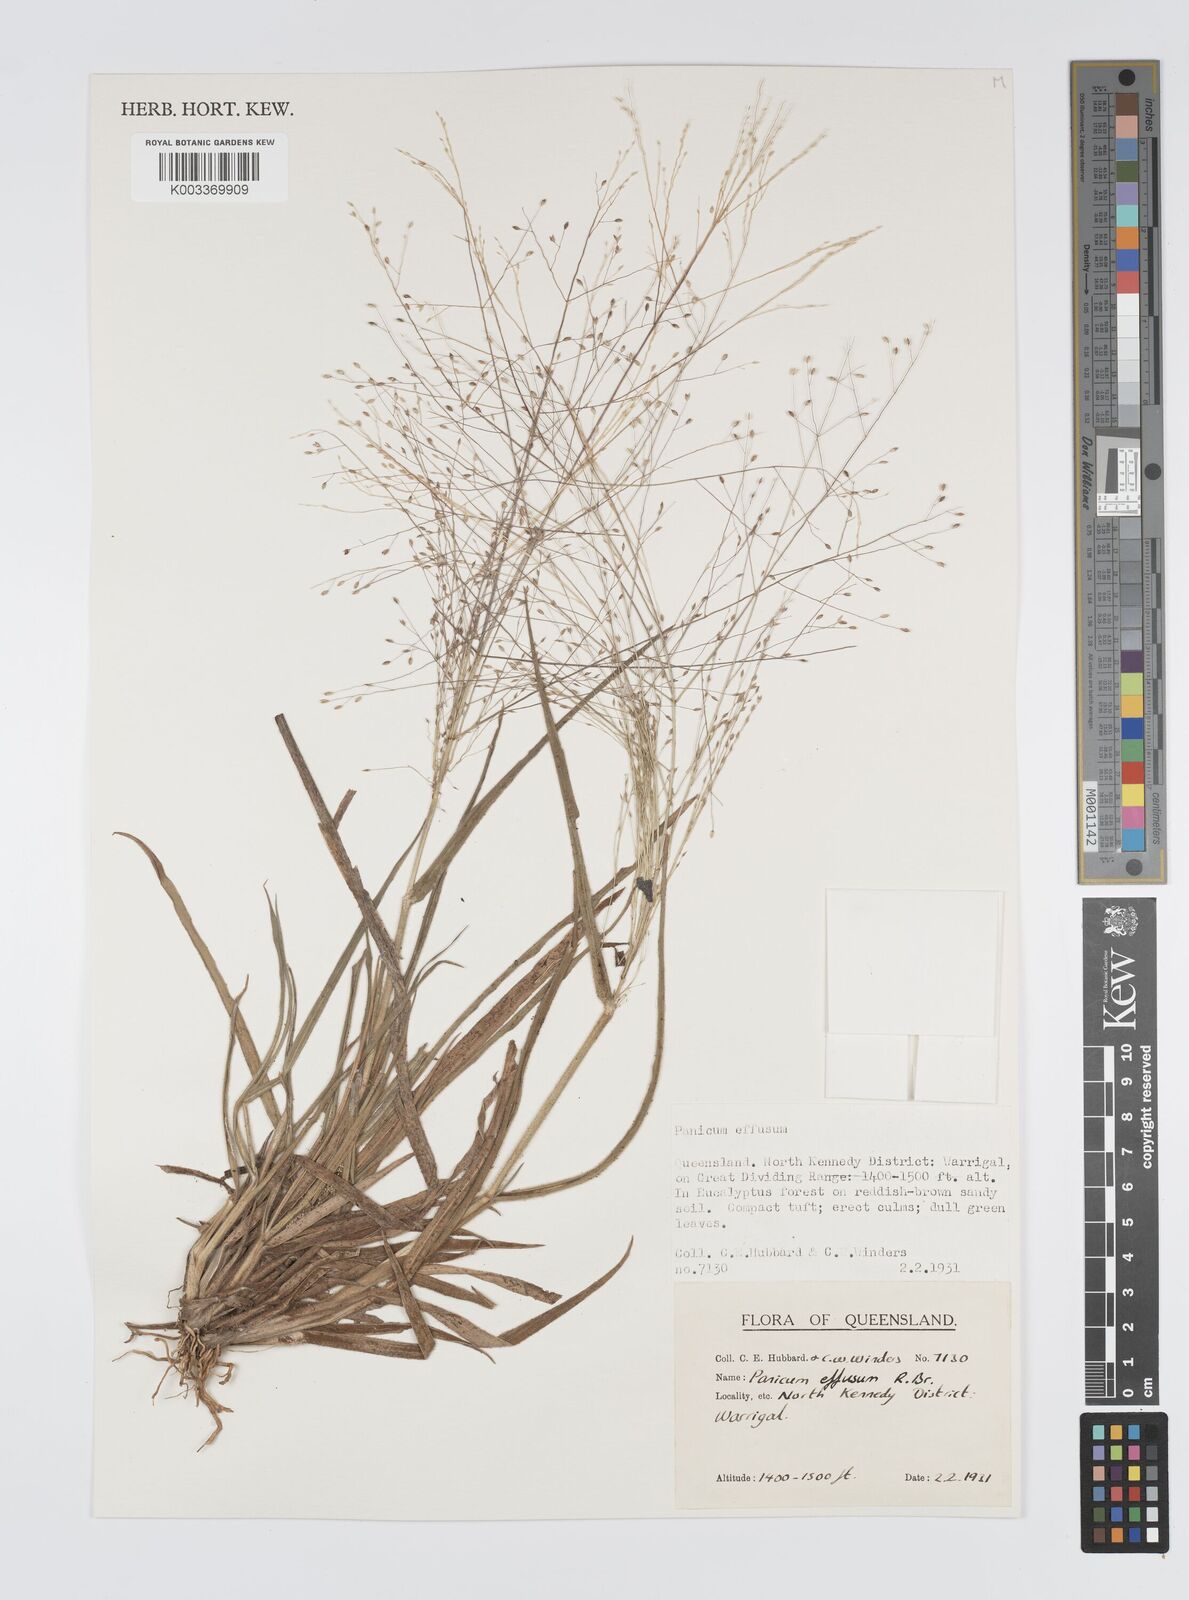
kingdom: Plantae
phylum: Tracheophyta
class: Liliopsida
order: Poales
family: Poaceae
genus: Panicum
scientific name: Panicum effusum
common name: Hairy panic grass
